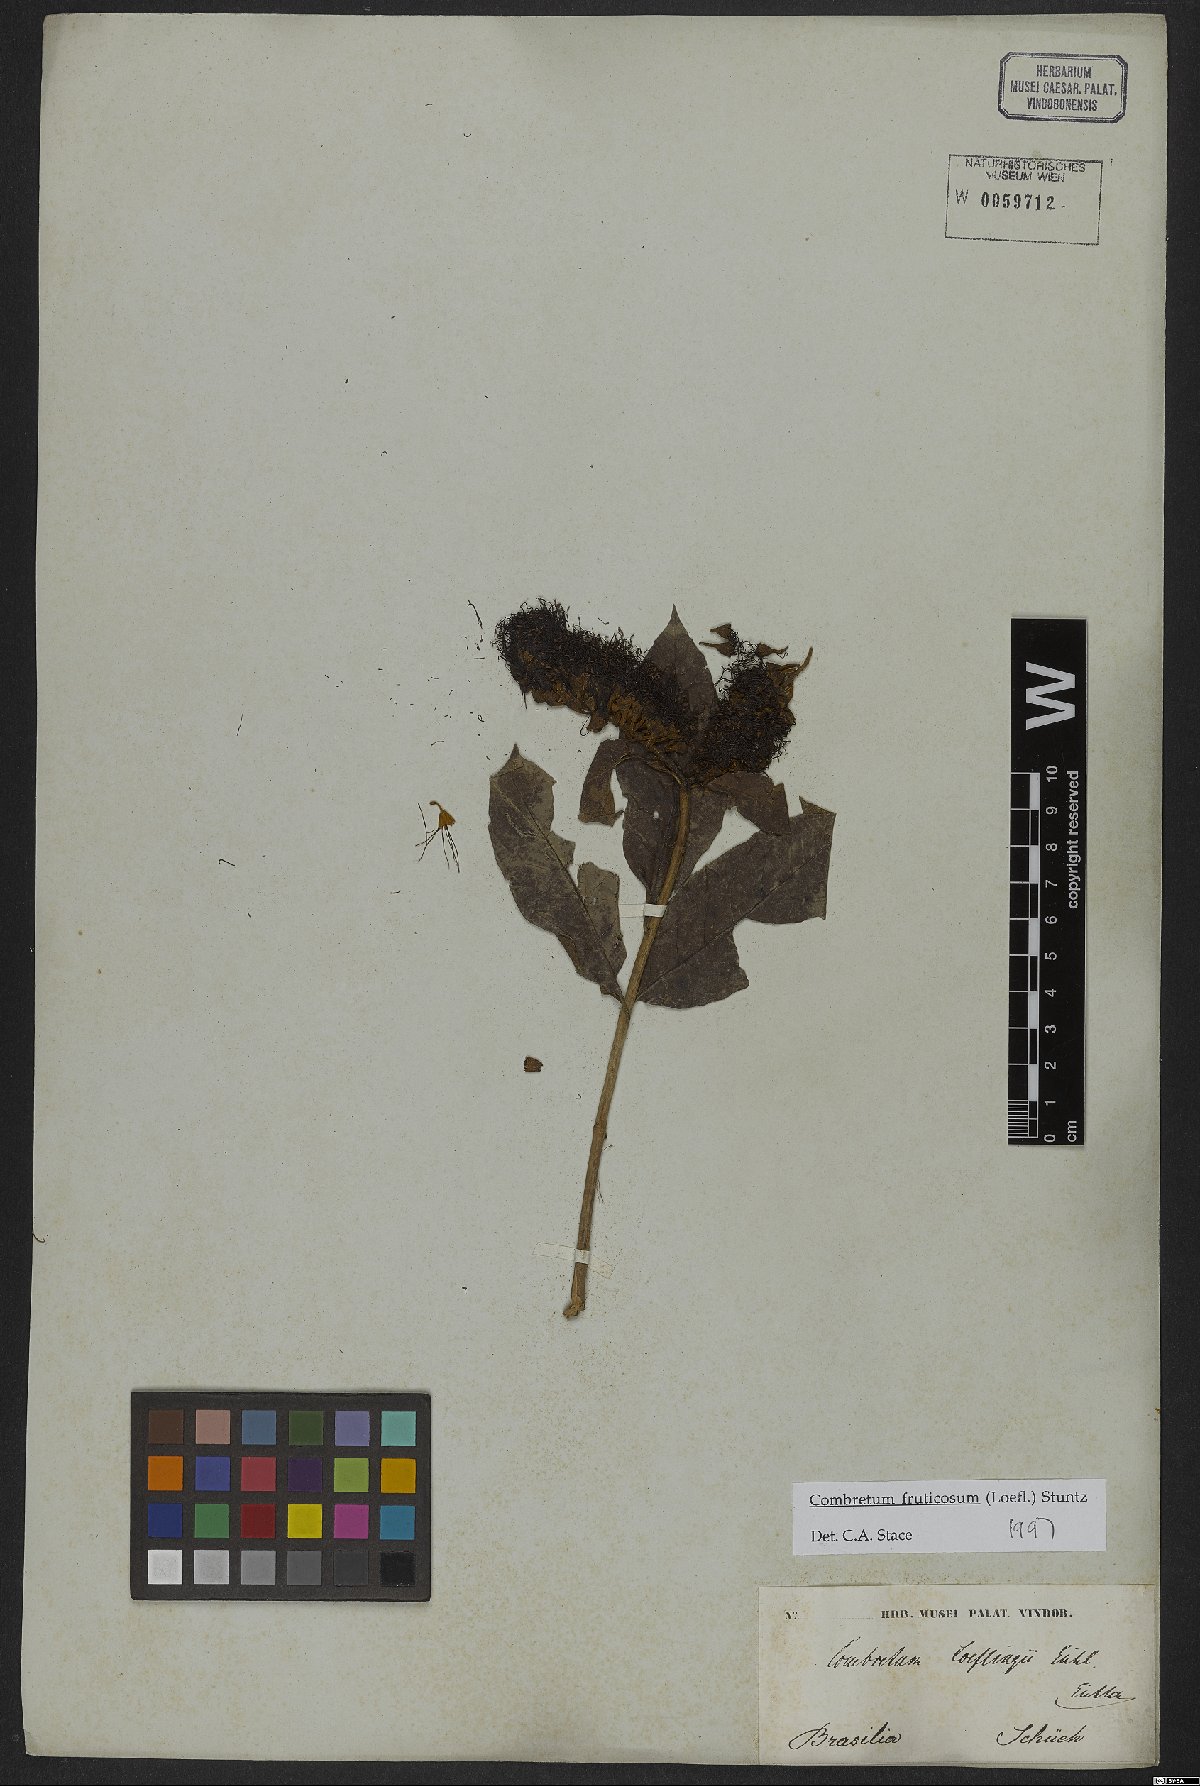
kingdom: Plantae
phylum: Tracheophyta
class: Magnoliopsida
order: Myrtales
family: Combretaceae
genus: Combretum
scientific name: Combretum fruticosum
